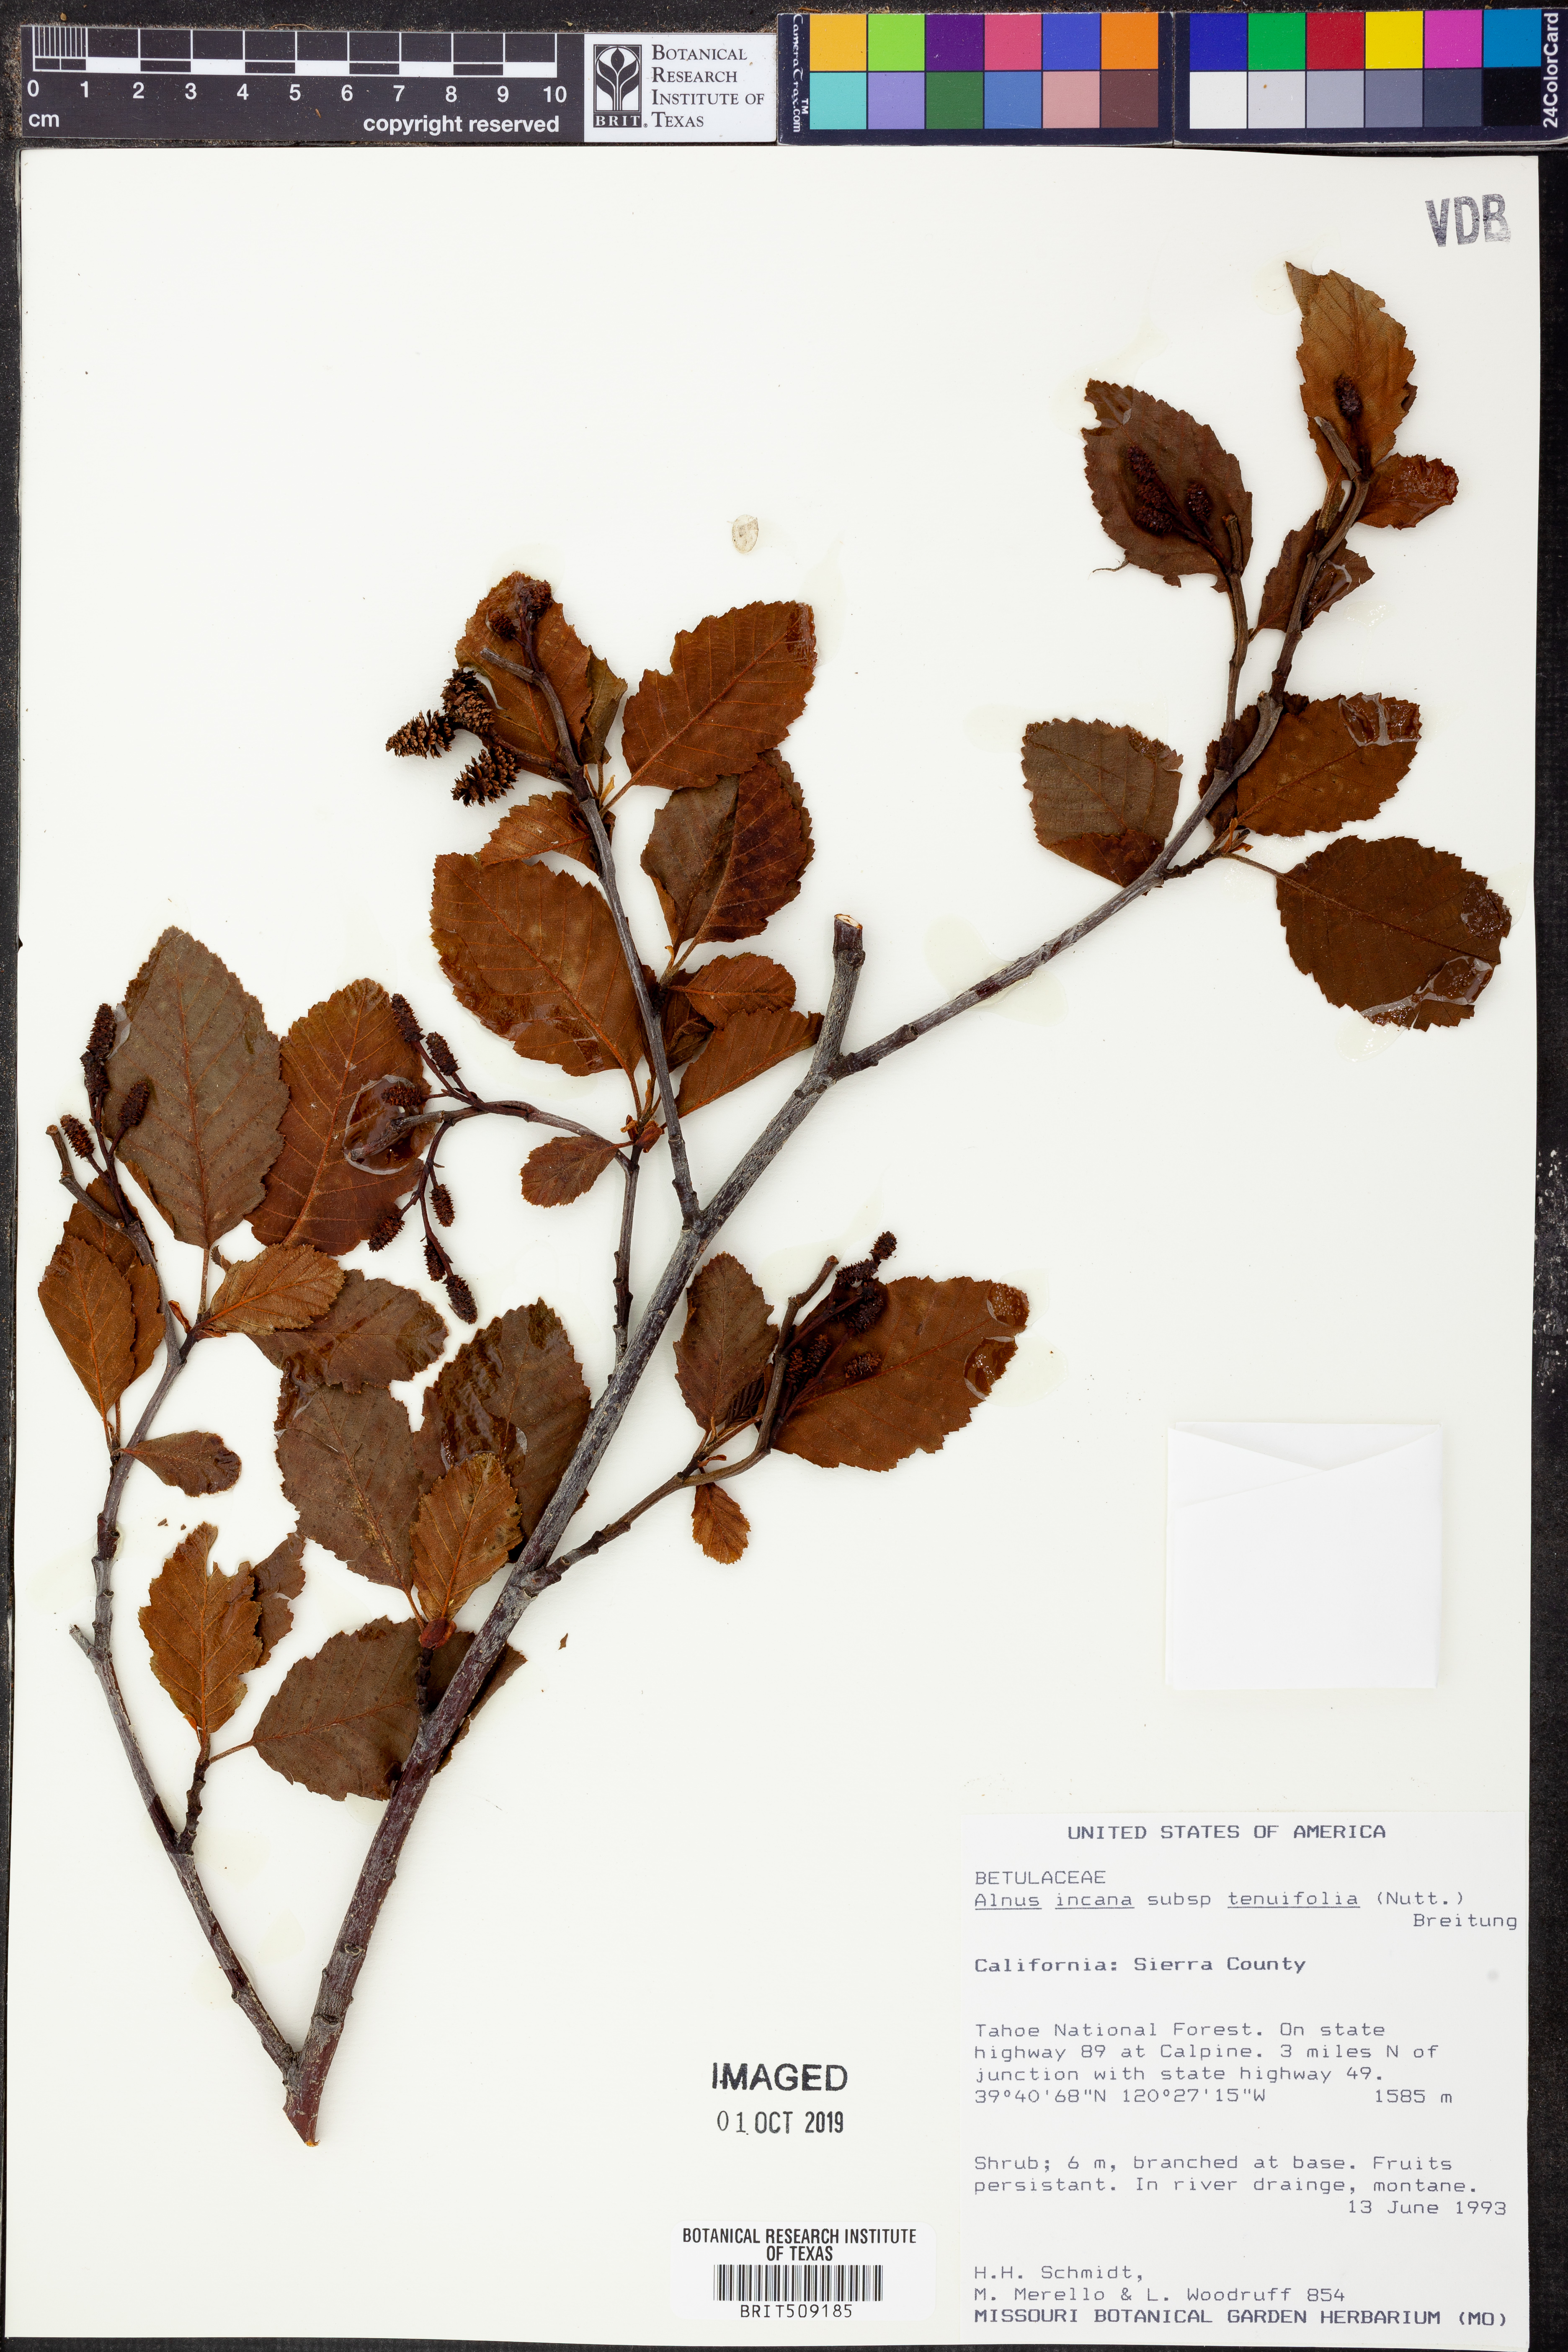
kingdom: Plantae
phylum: Tracheophyta
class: Magnoliopsida
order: Fagales
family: Betulaceae
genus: Alnus
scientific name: Alnus incana
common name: Grey alder
